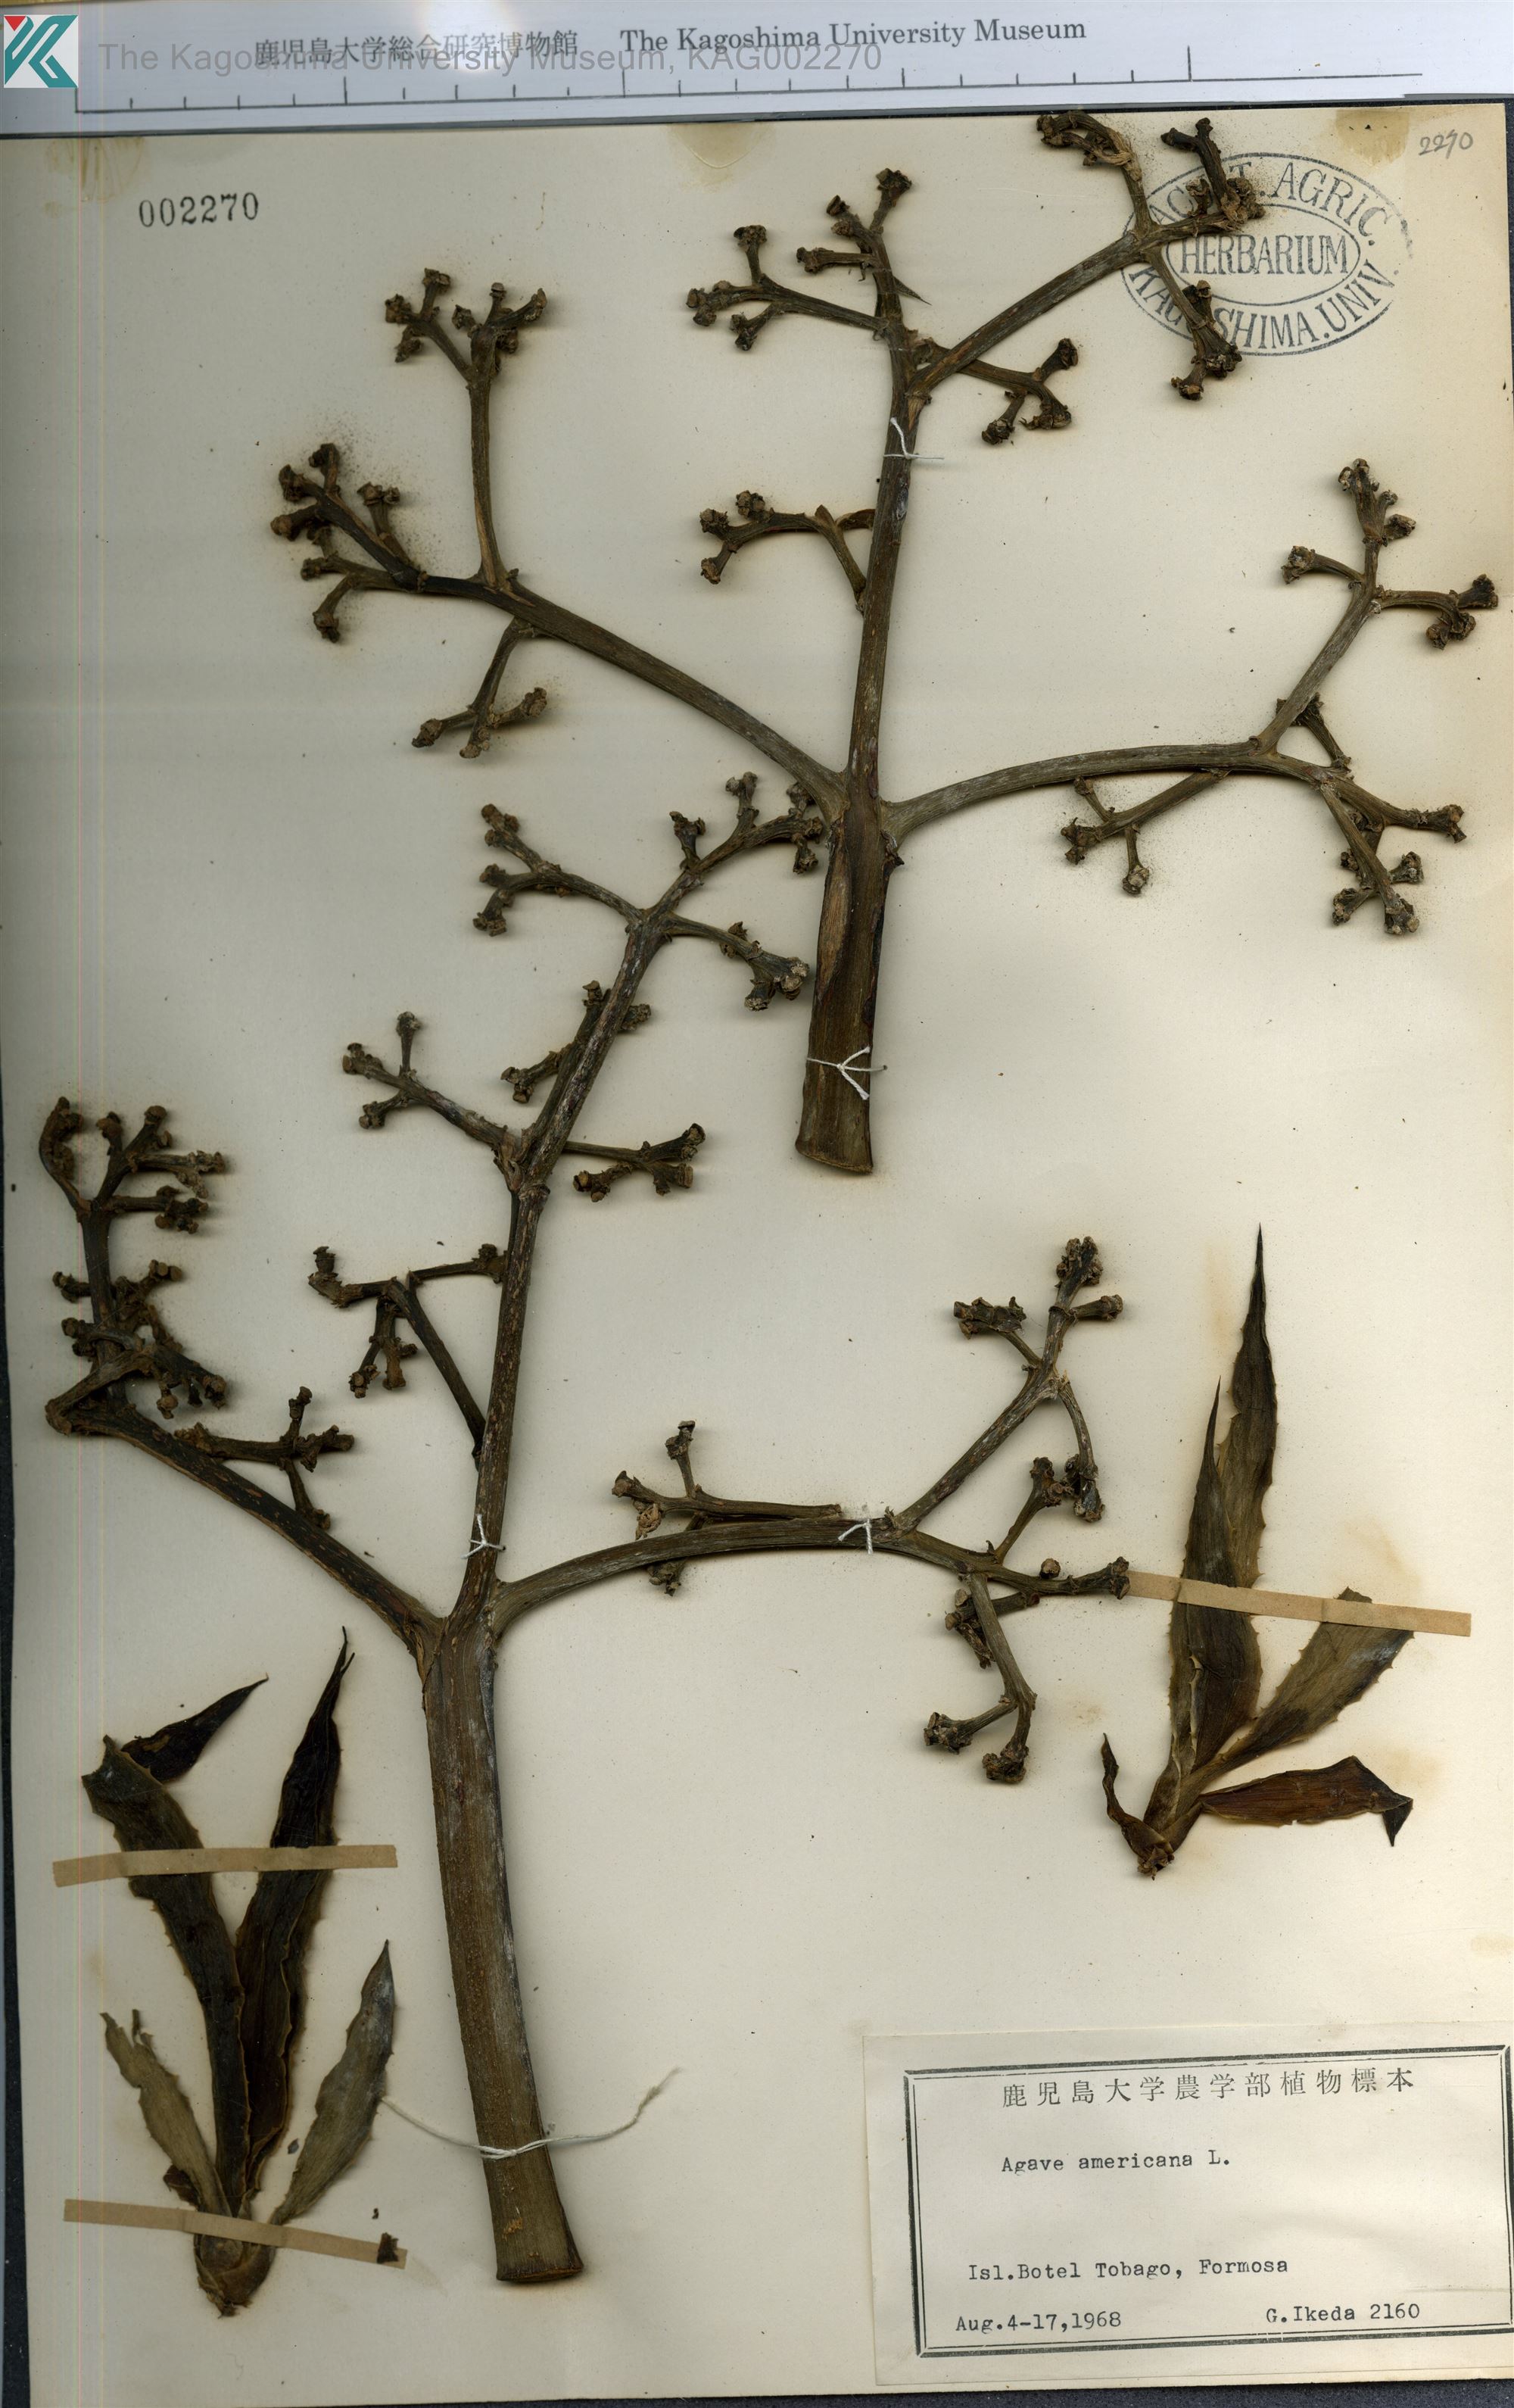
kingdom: Plantae
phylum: Tracheophyta
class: Liliopsida
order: Asparagales
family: Asparagaceae
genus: Agave
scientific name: Agave americana
